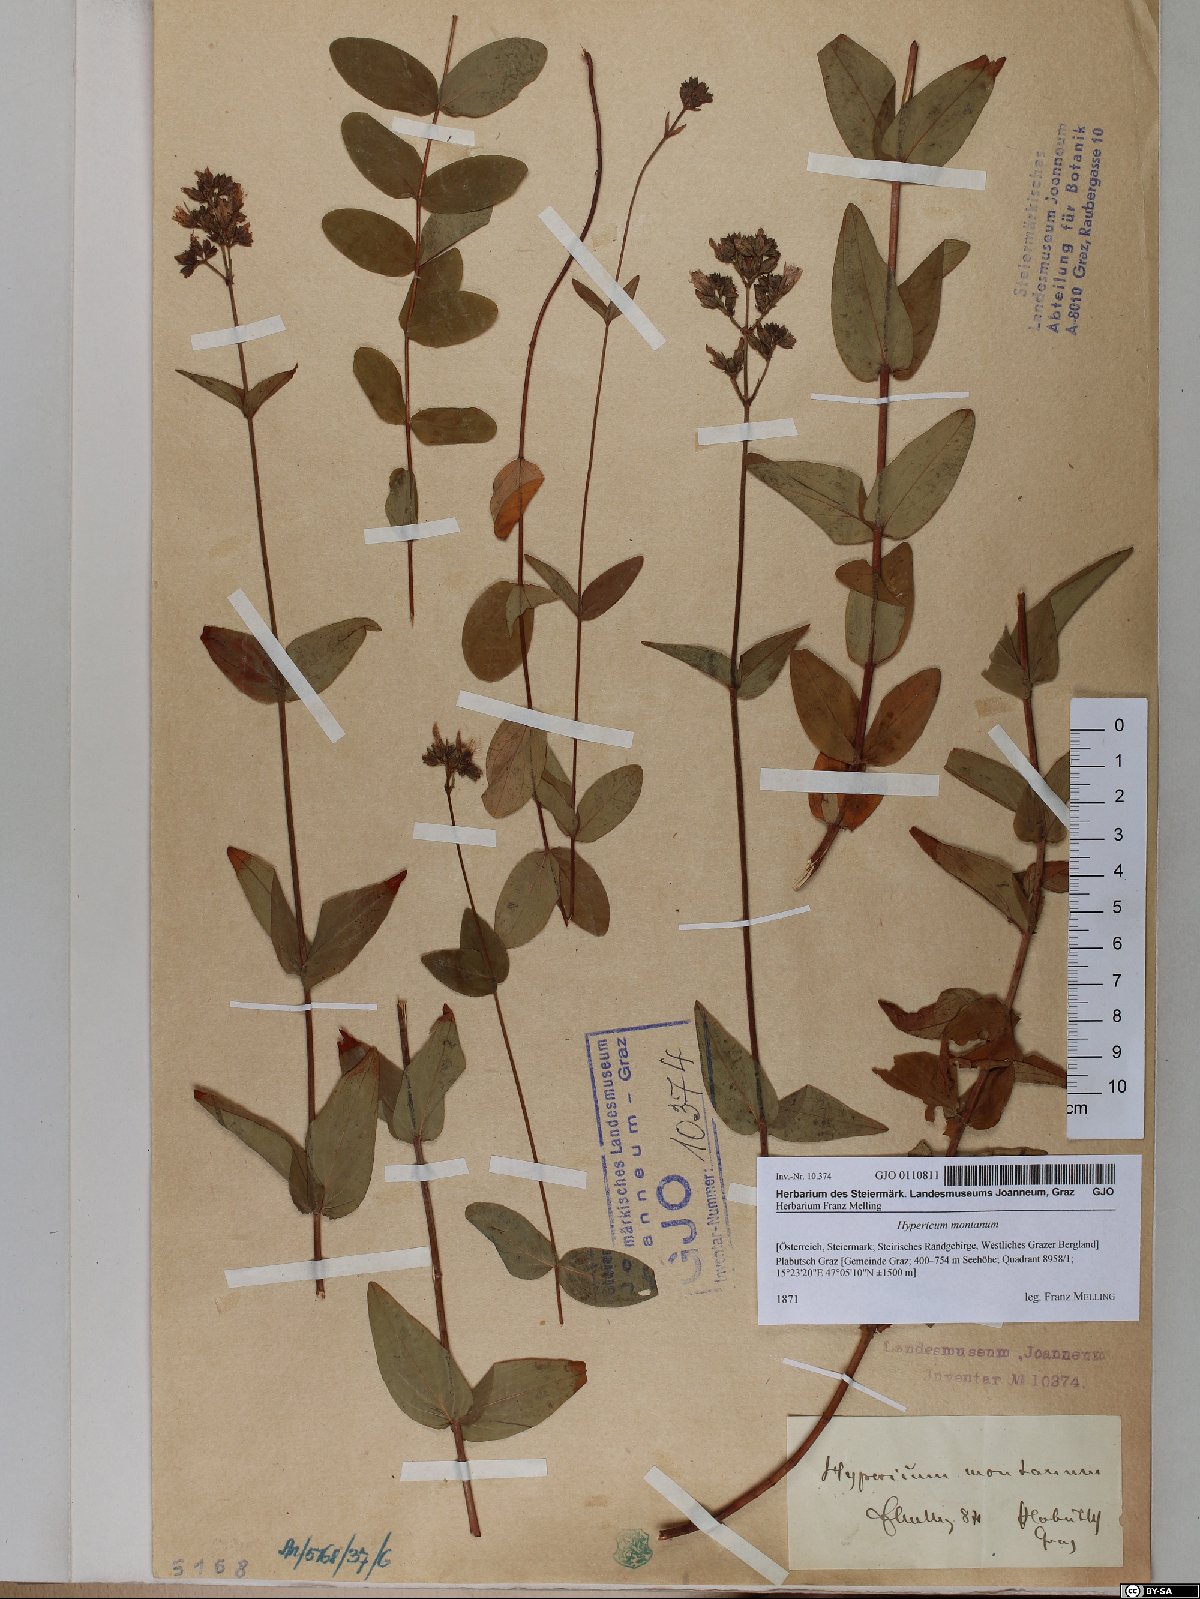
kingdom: Plantae
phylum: Tracheophyta
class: Magnoliopsida
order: Malpighiales
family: Hypericaceae
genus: Hypericum
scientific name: Hypericum montanum
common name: Pale st. john's-wort
